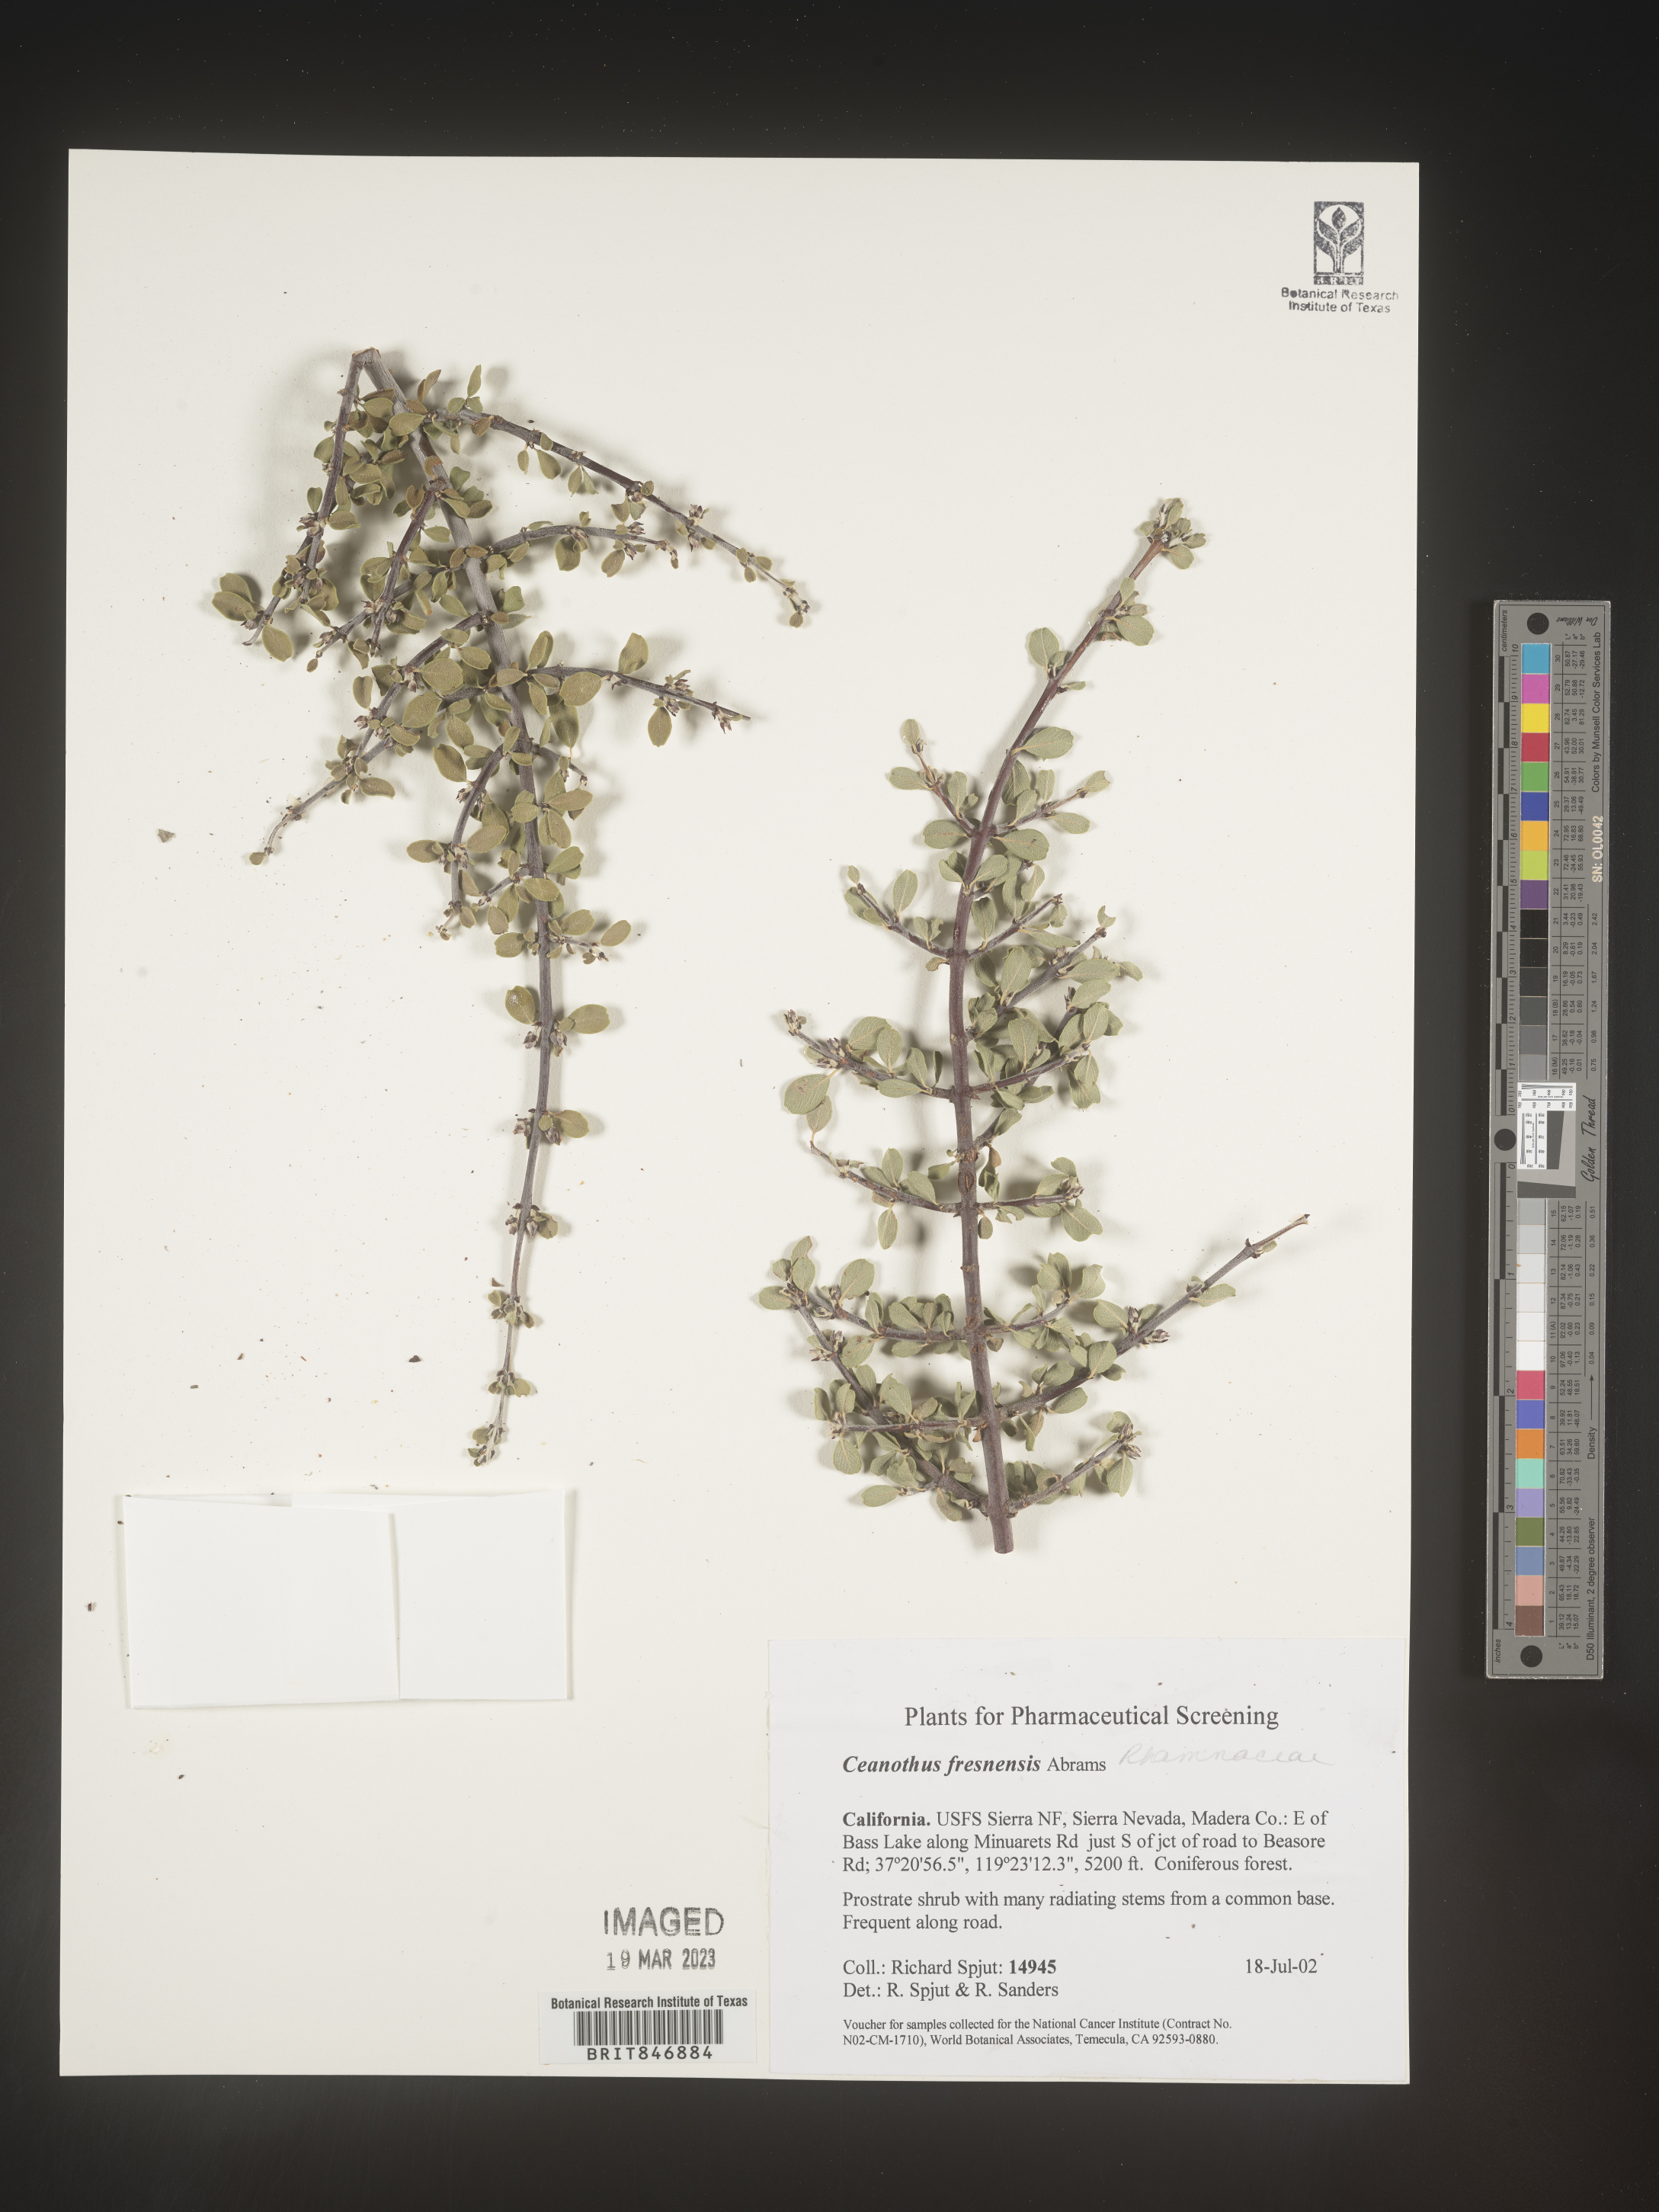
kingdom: Plantae
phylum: Tracheophyta
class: Magnoliopsida
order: Rosales
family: Rhamnaceae
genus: Ceanothus
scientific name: Ceanothus
